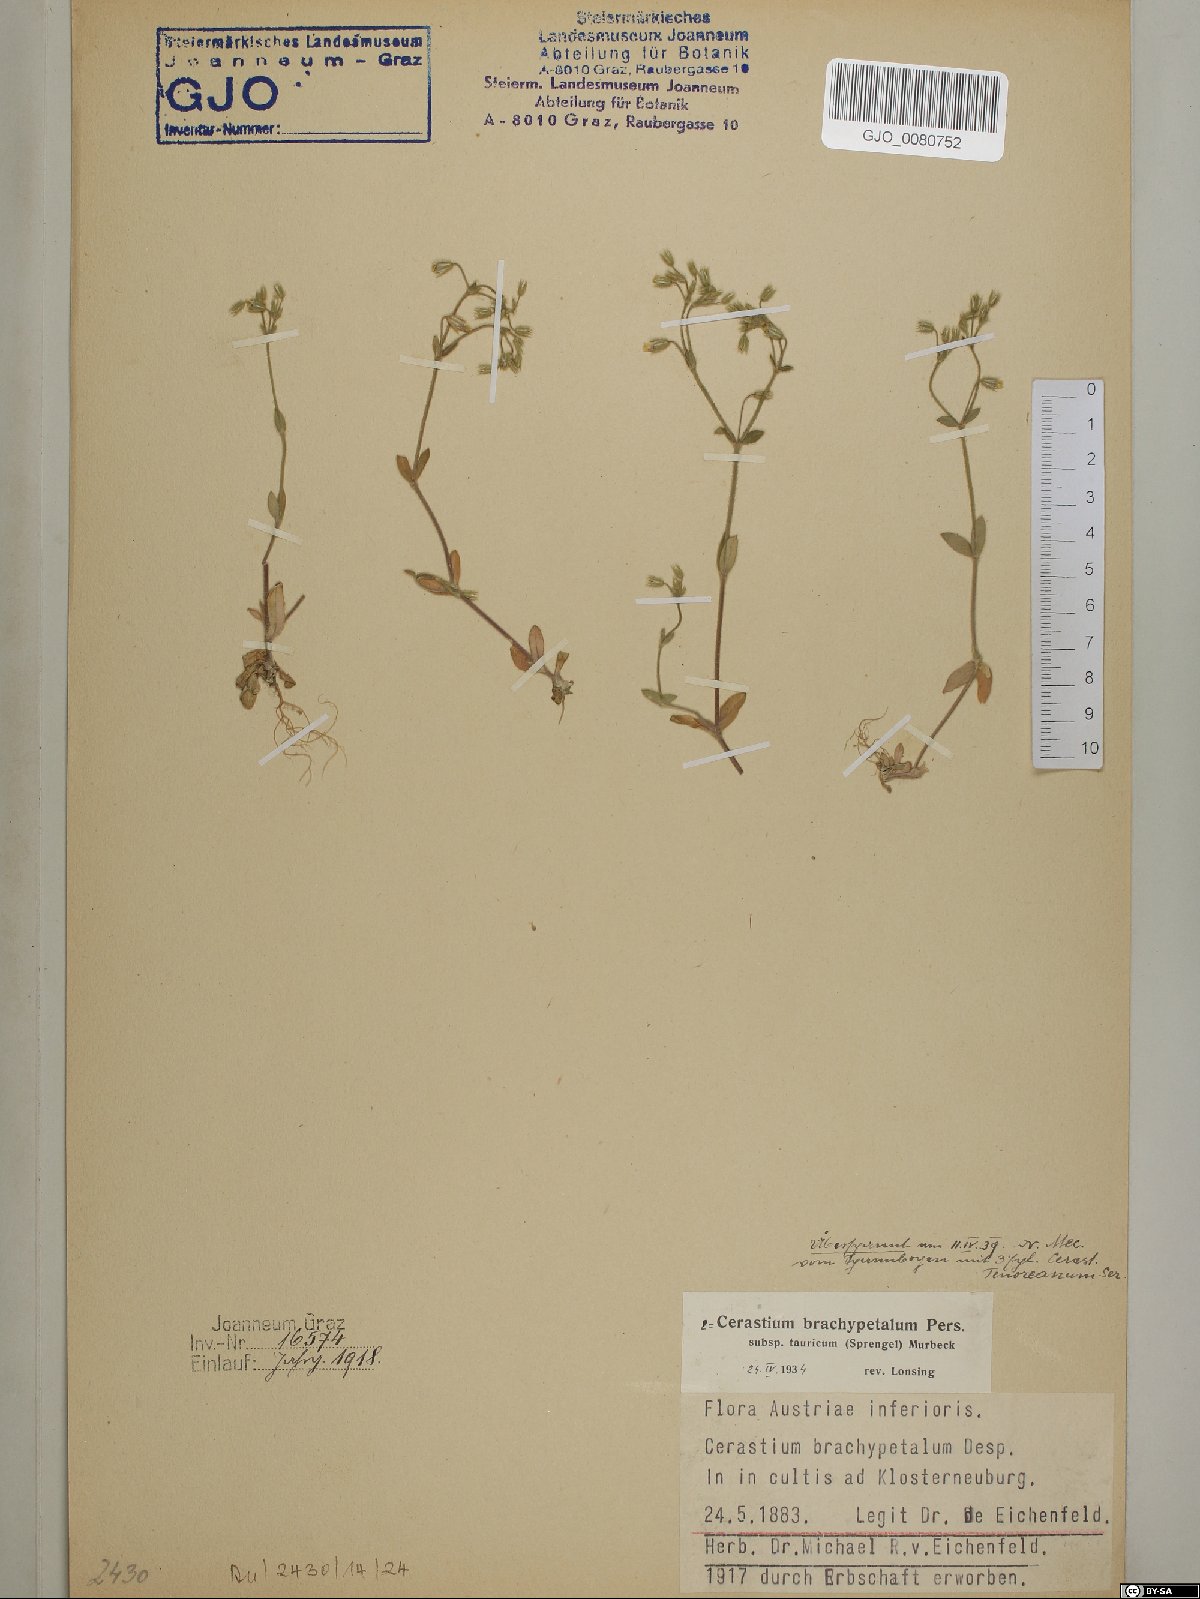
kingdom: Plantae
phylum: Tracheophyta
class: Magnoliopsida
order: Caryophyllales
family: Caryophyllaceae
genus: Cerastium
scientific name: Cerastium brachypetalum
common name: Grey mouse-ear
